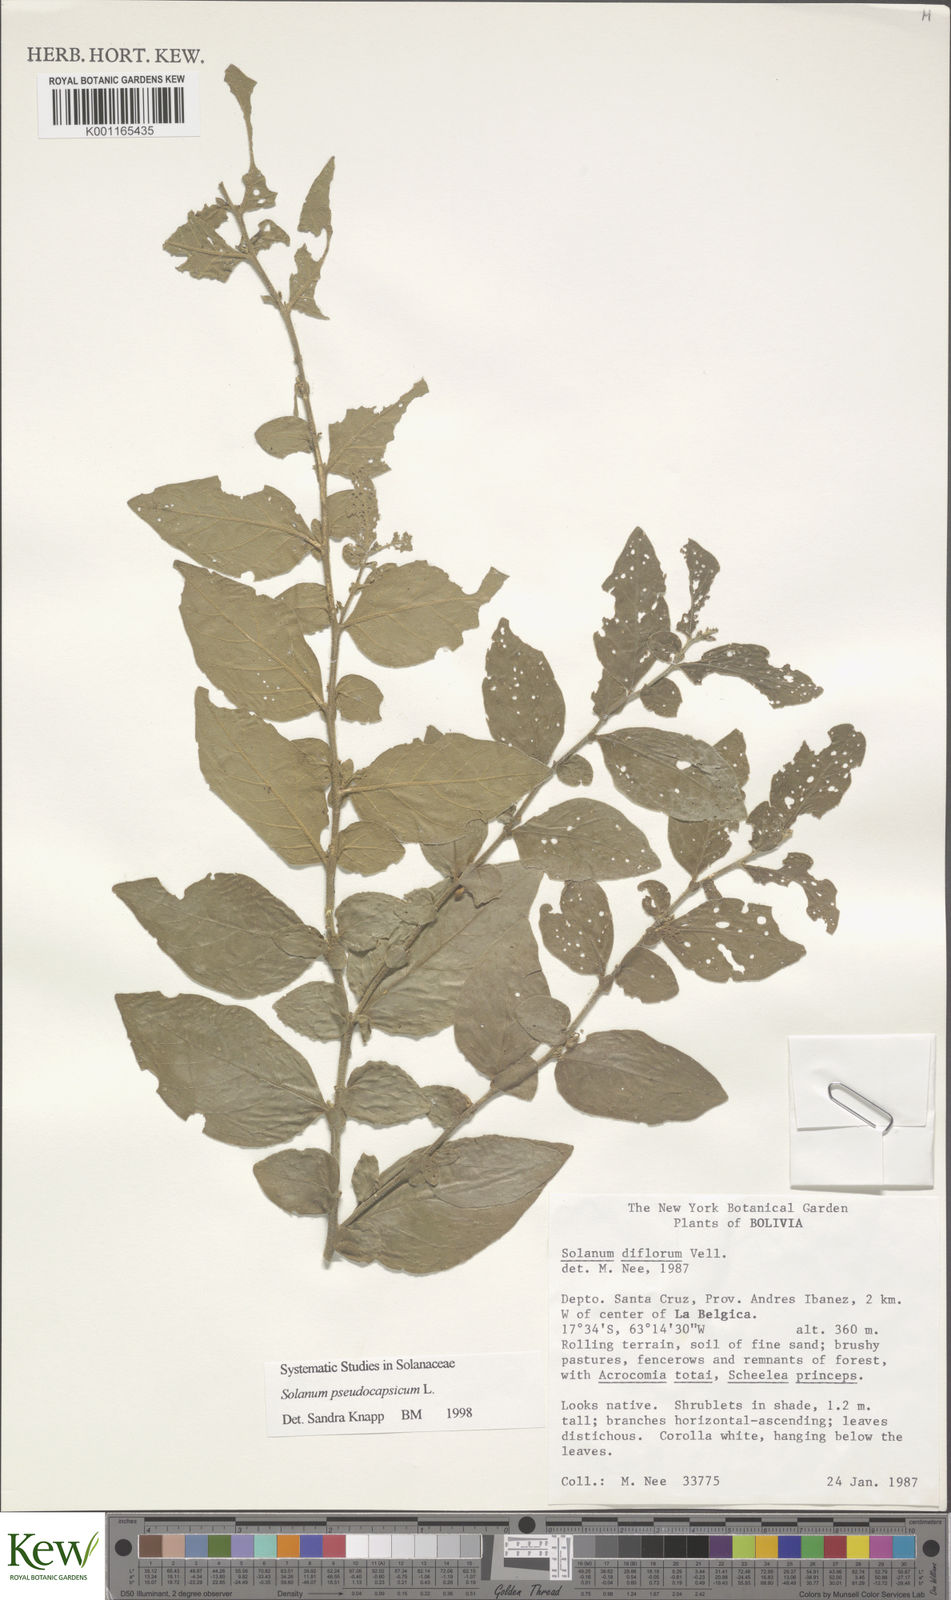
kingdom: Plantae
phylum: Tracheophyta
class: Magnoliopsida
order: Solanales
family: Solanaceae
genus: Solanum
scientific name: Solanum pseudocapsicum
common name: Jerusalem cherry
